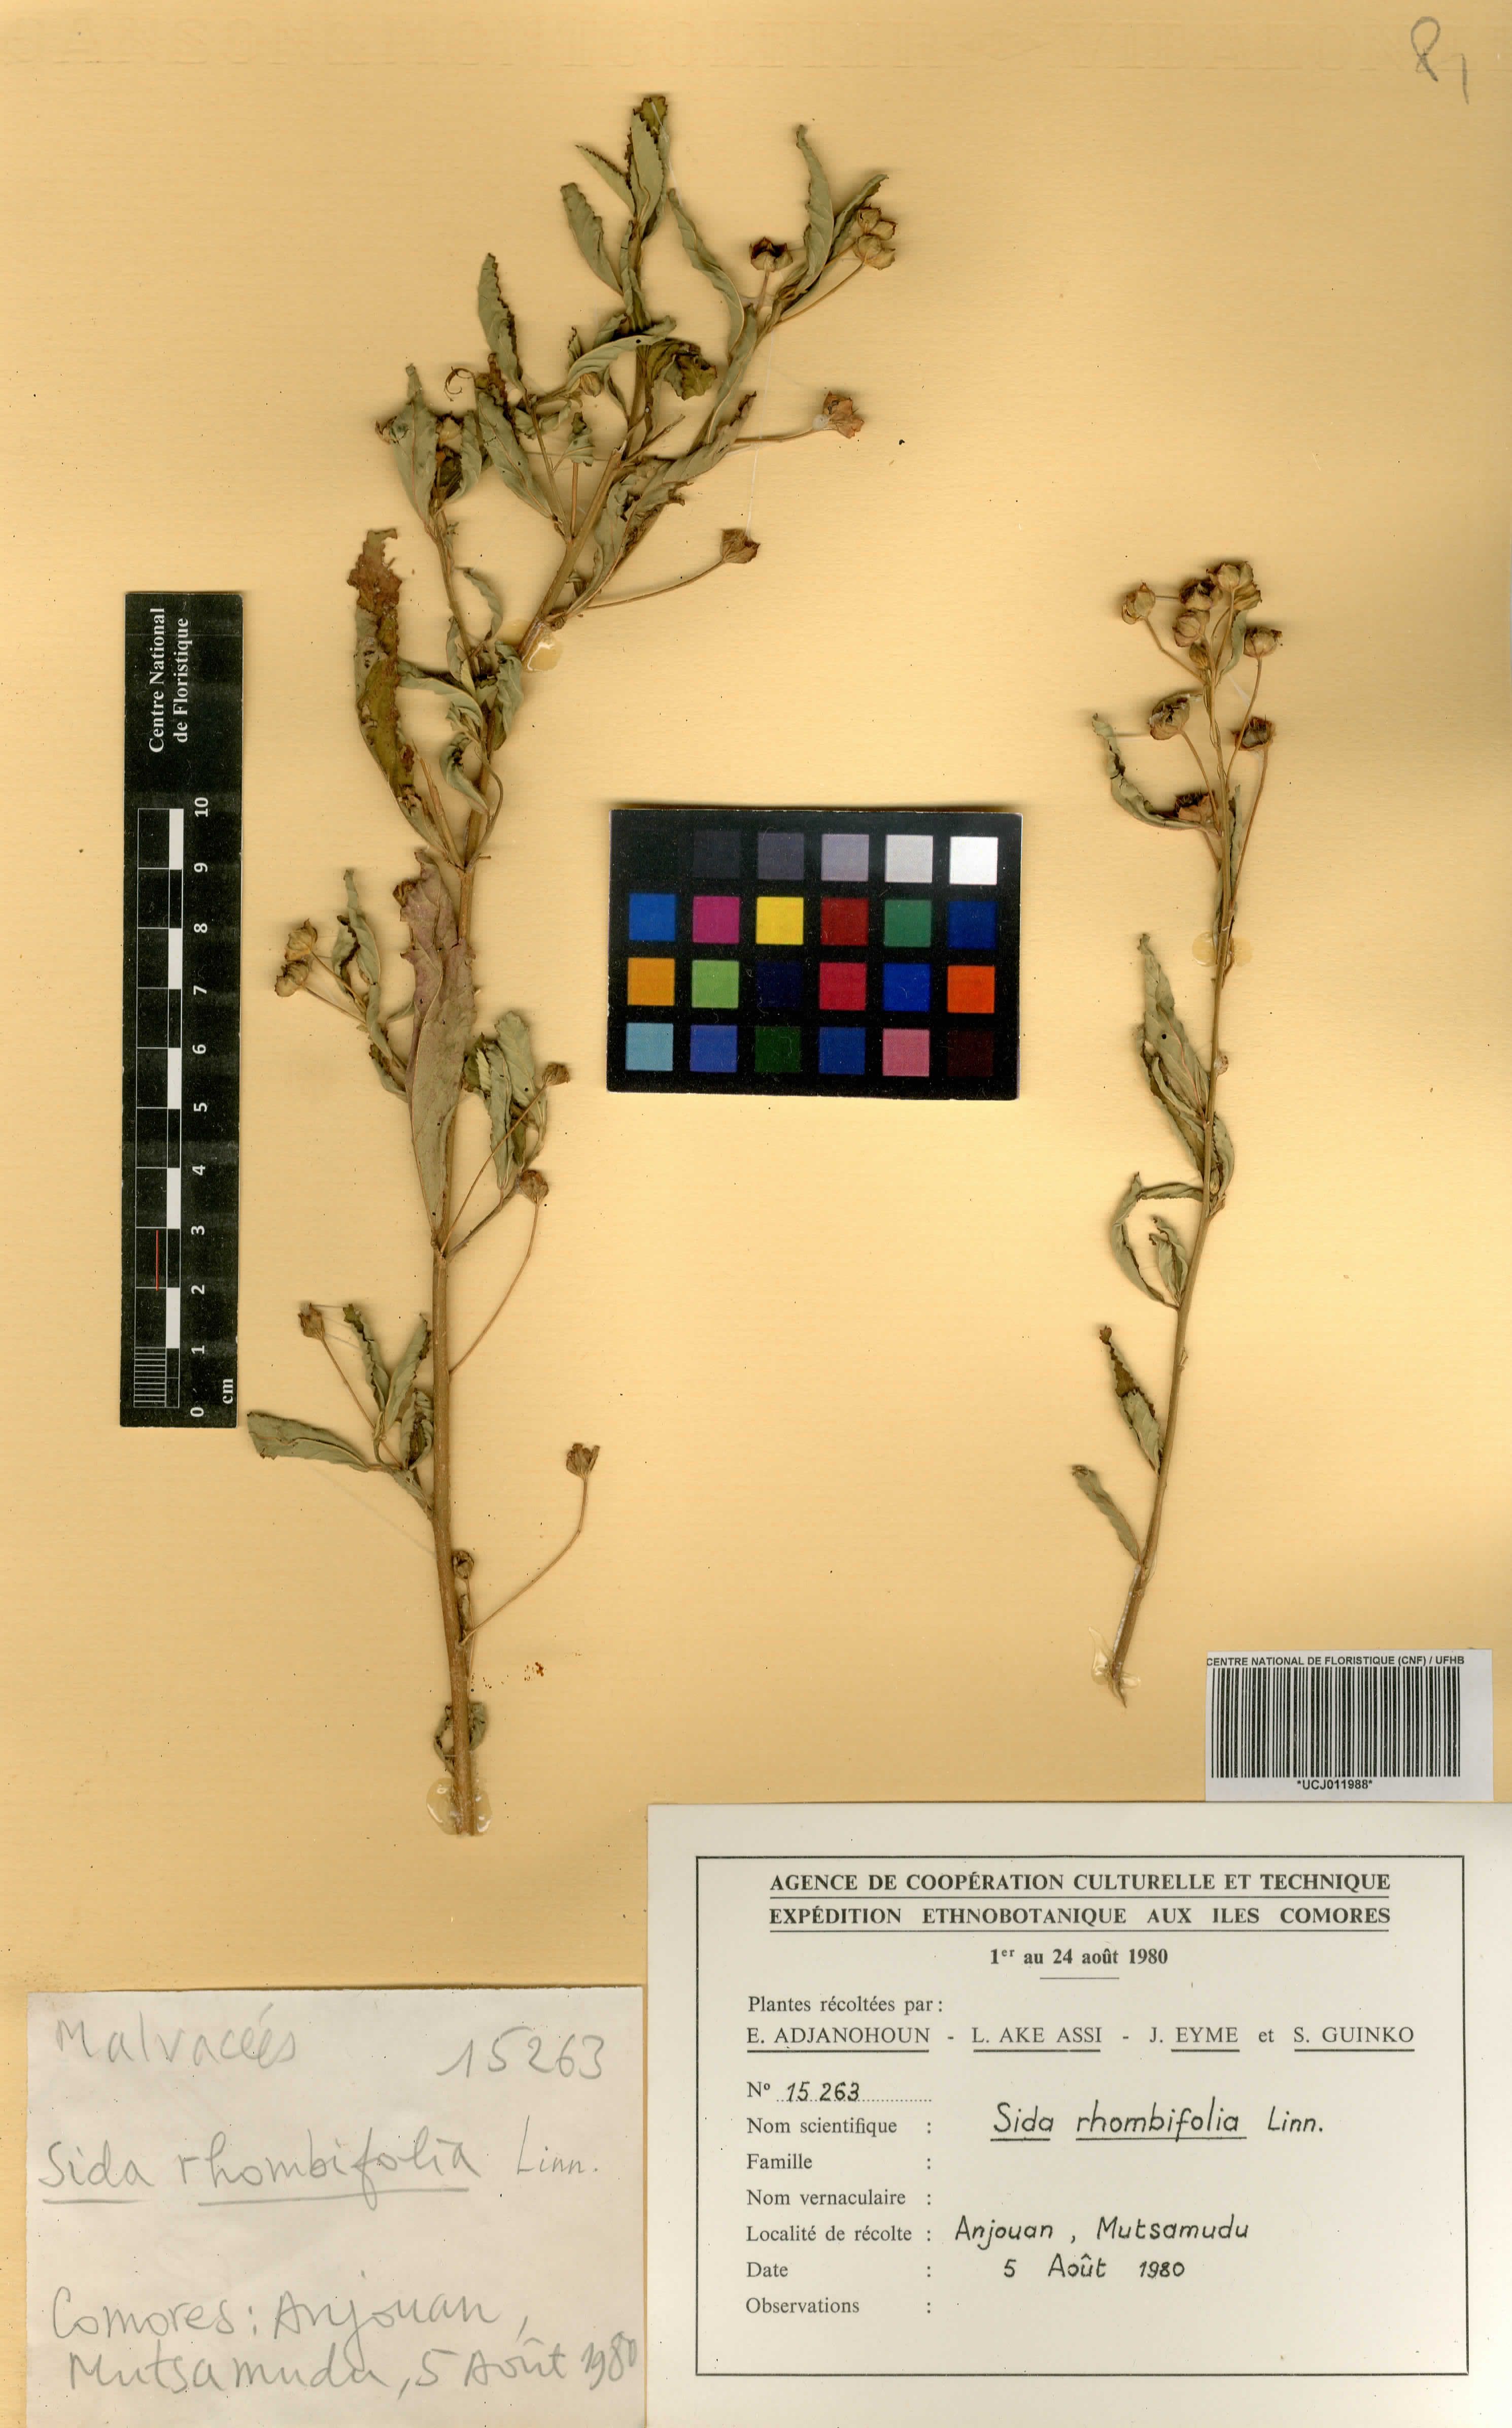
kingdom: Plantae
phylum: Tracheophyta
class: Magnoliopsida
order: Malvales
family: Malvaceae
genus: Sida
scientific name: Sida rhombifolia
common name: Queensland-hemp
